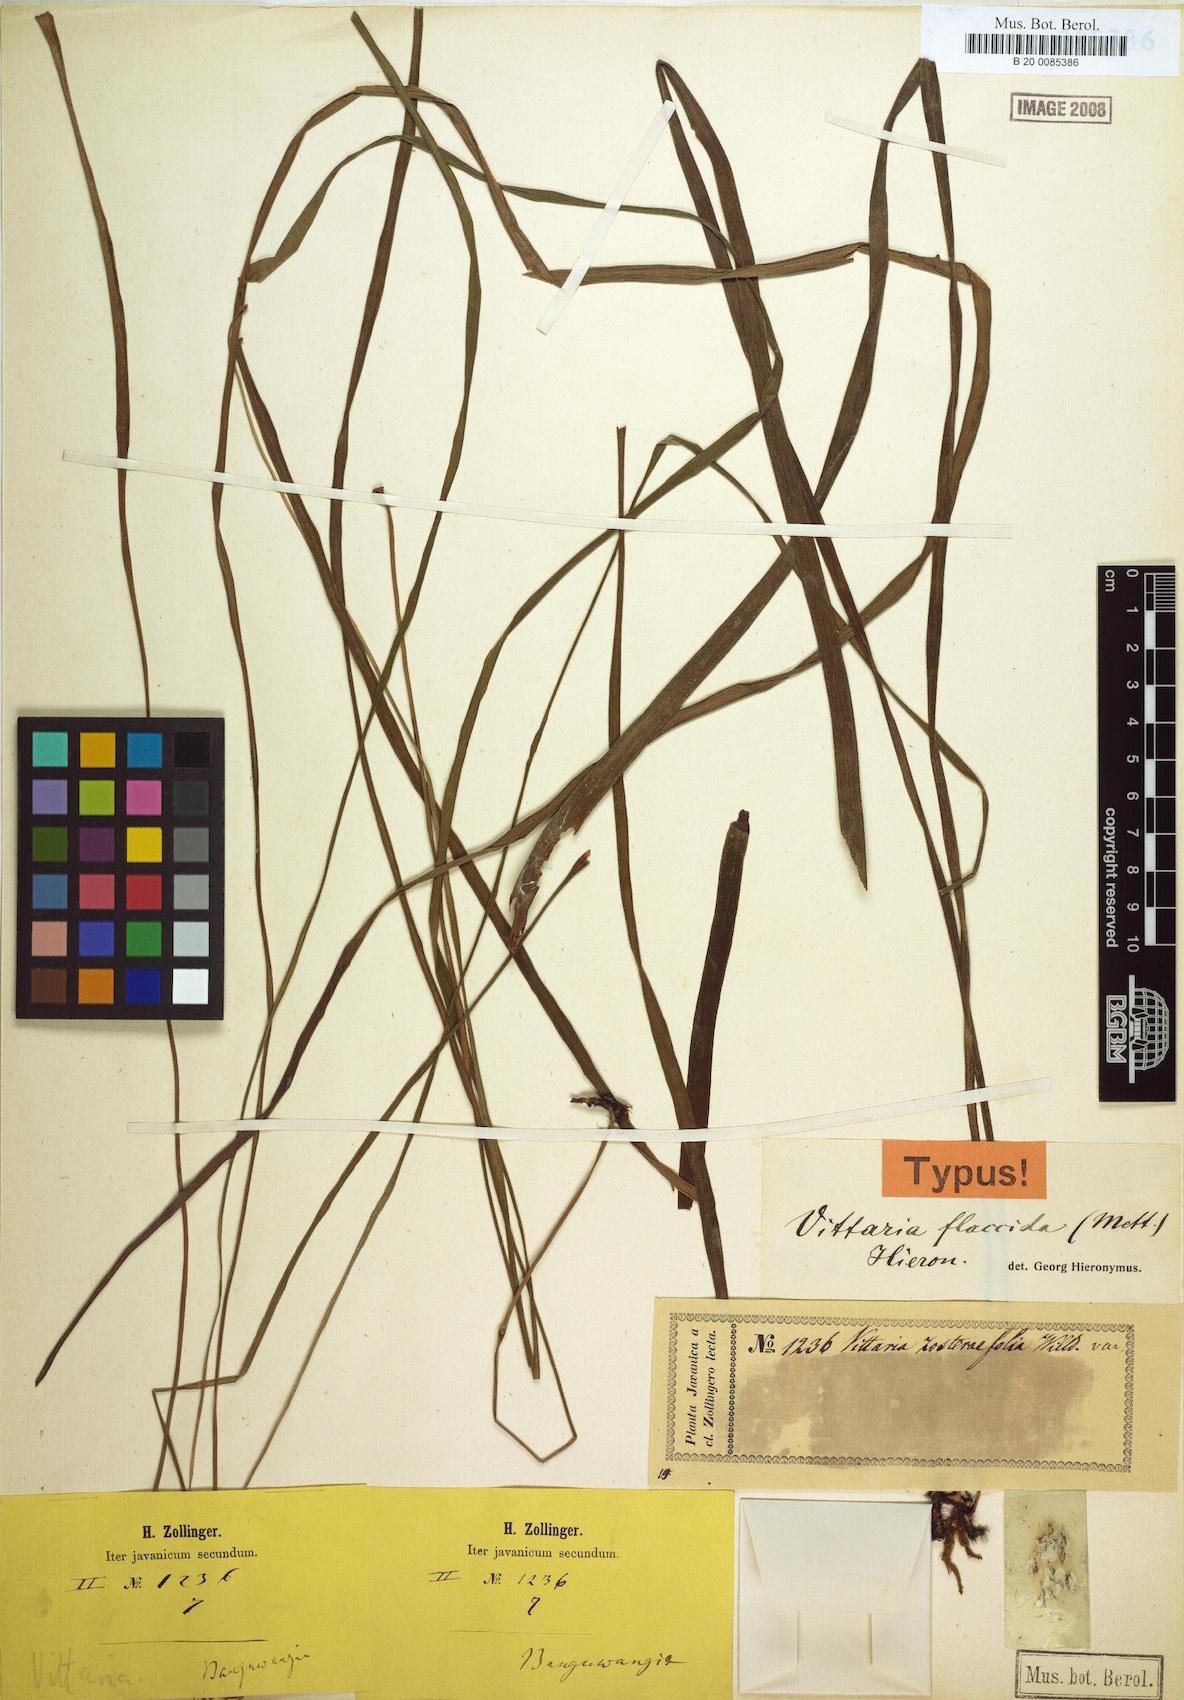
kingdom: Plantae
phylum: Tracheophyta
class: Polypodiopsida
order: Polypodiales
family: Pteridaceae
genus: Haplopteris
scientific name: Haplopteris elongata
